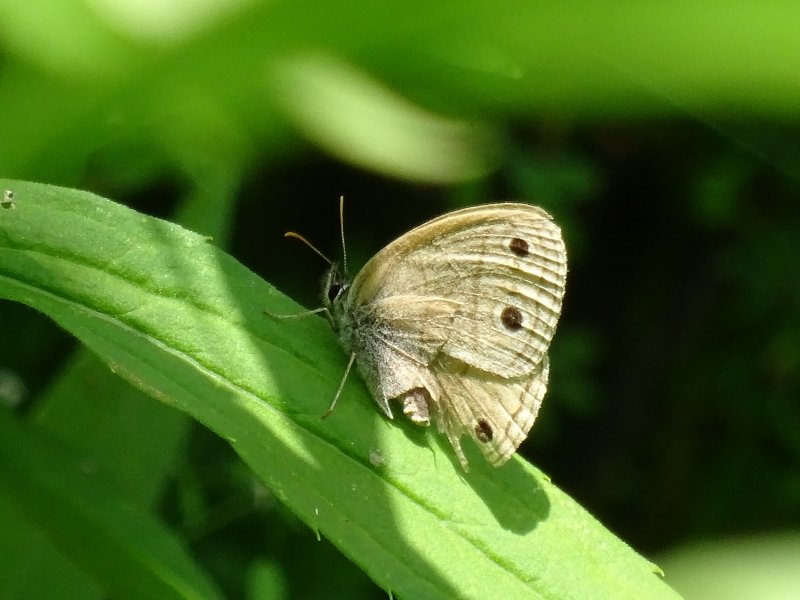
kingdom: Animalia
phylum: Arthropoda
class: Insecta
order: Lepidoptera
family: Nymphalidae
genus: Euptychia
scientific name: Euptychia cymela
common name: Little Wood Satyr
